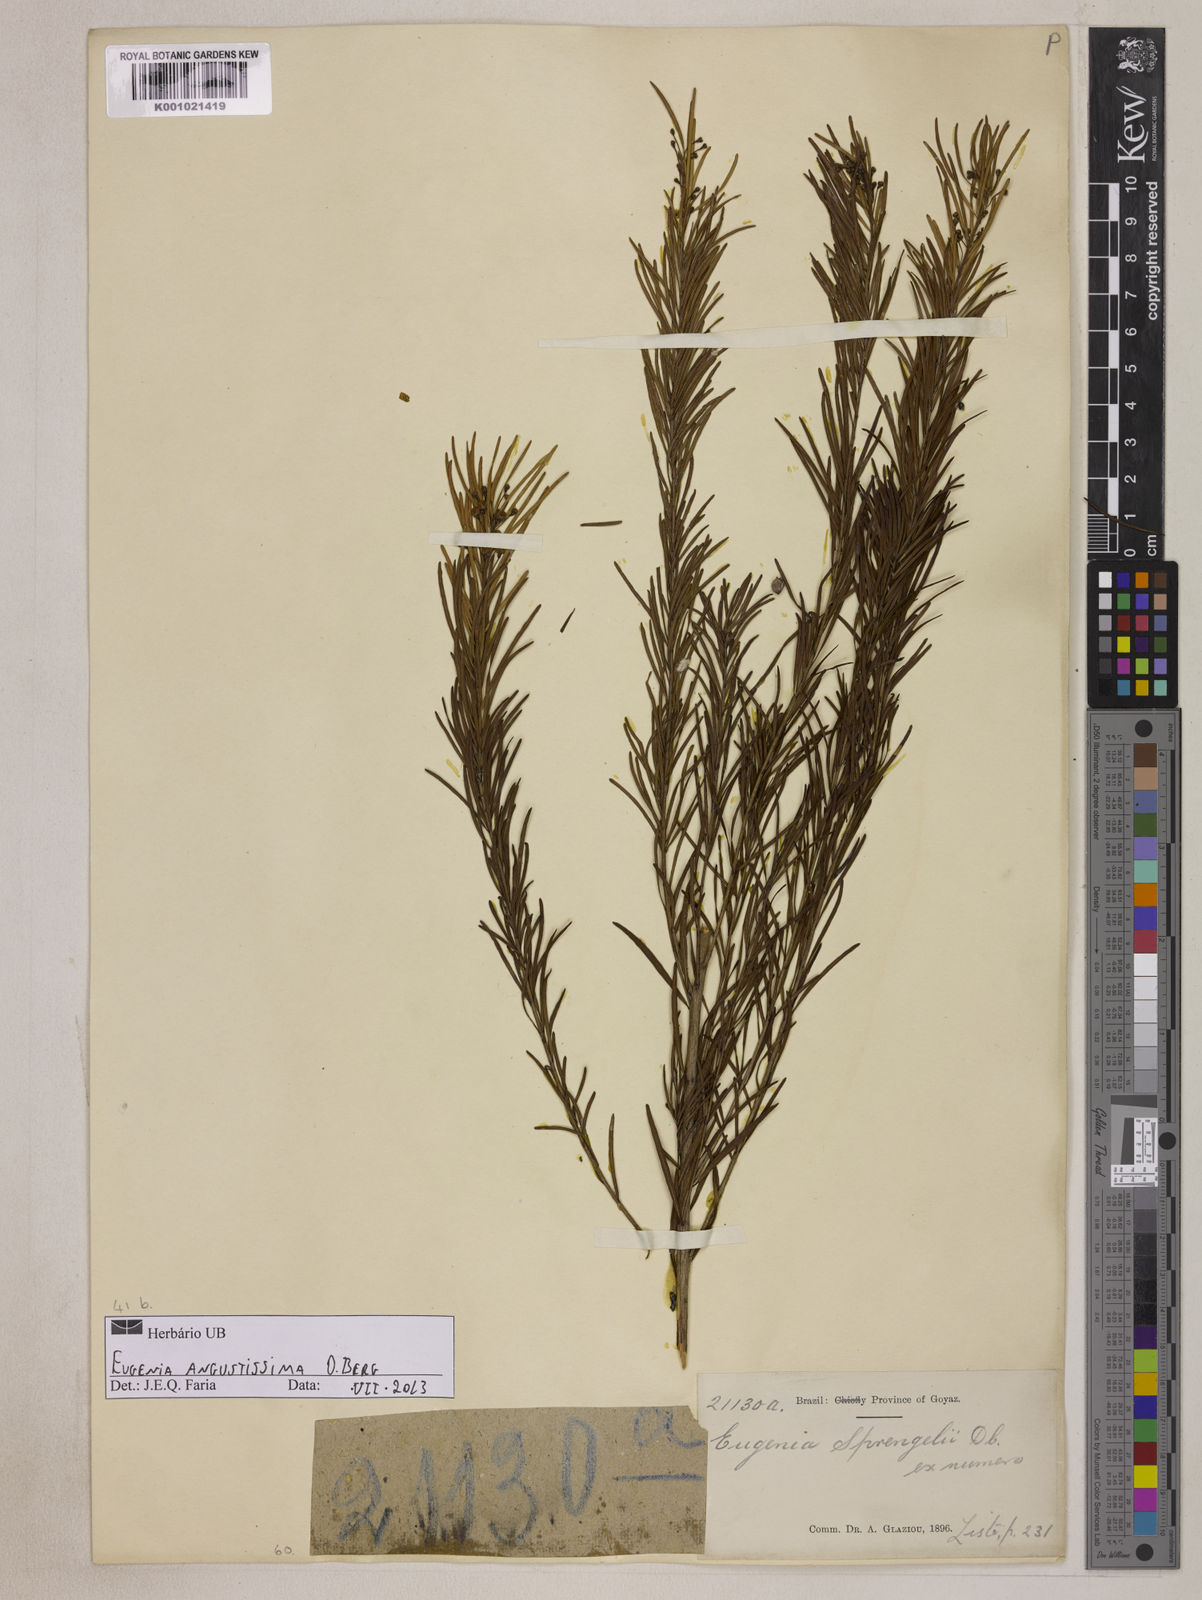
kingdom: Plantae
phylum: Tracheophyta
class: Magnoliopsida
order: Myrtales
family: Myrtaceae
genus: Eugenia
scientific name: Eugenia angustissima
